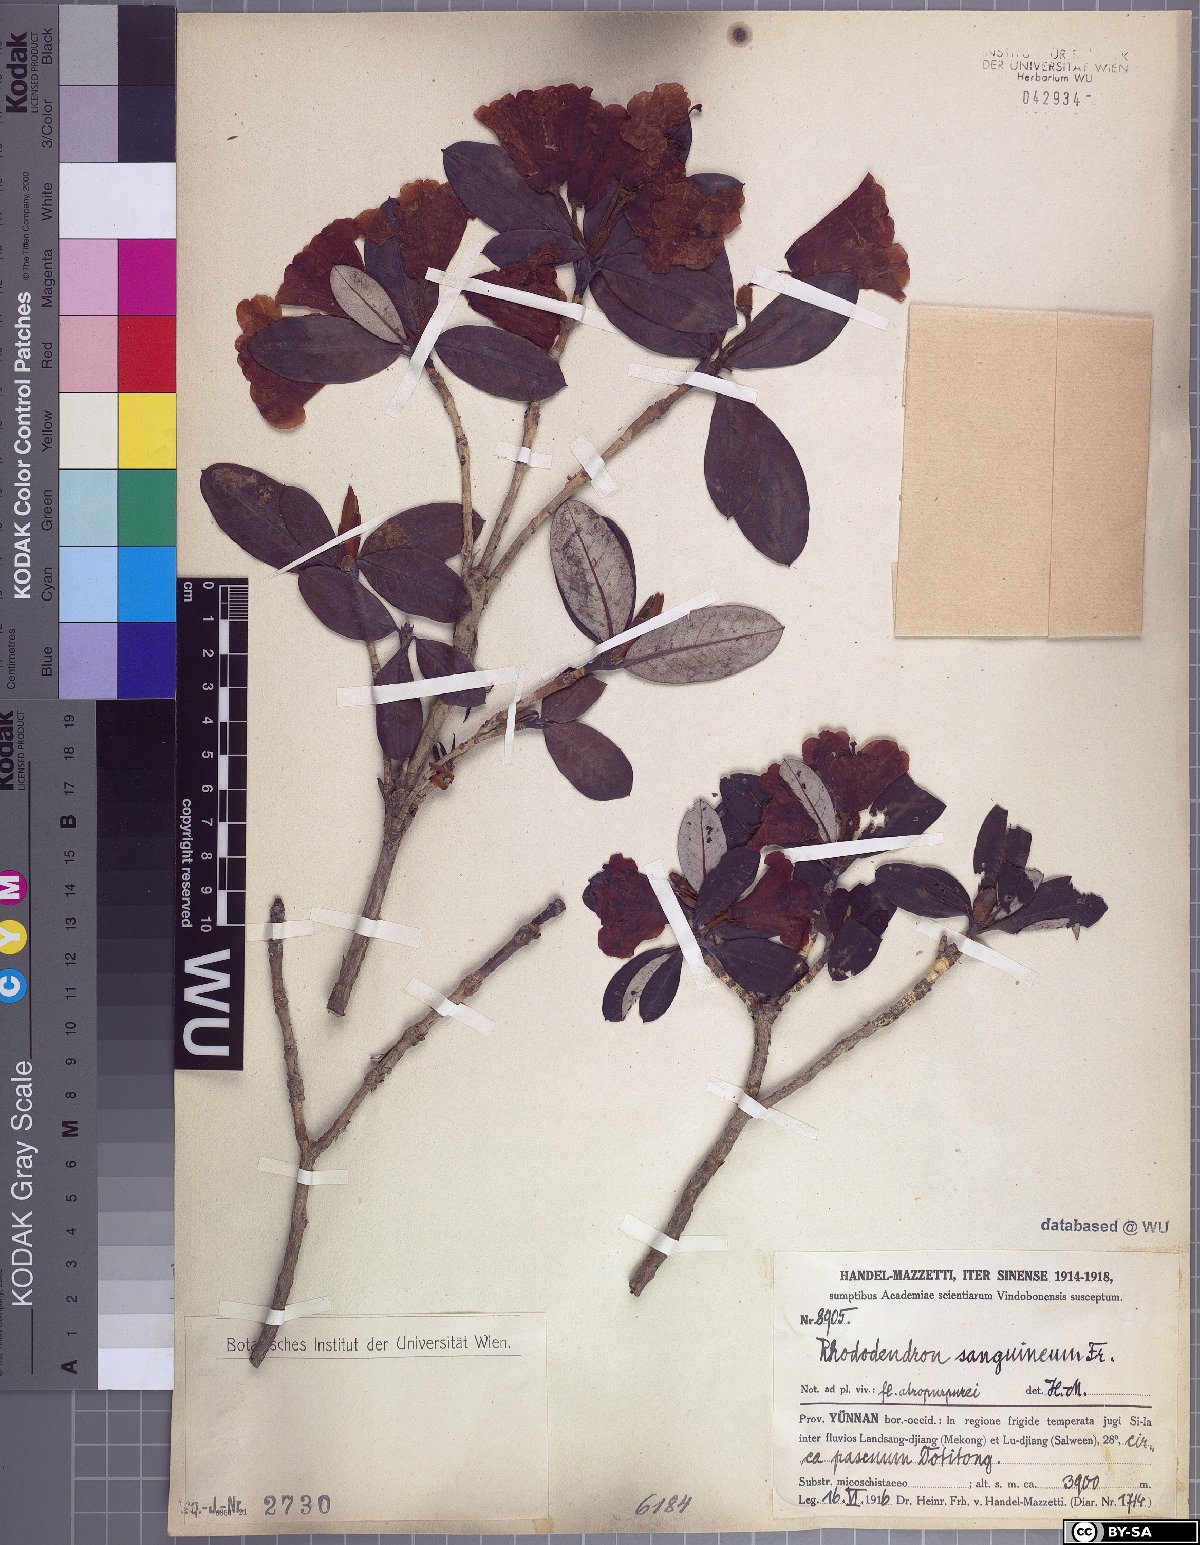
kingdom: Plantae
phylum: Tracheophyta
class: Magnoliopsida
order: Ericales
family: Ericaceae
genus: Rhododendron
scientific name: Rhododendron sanguineum
